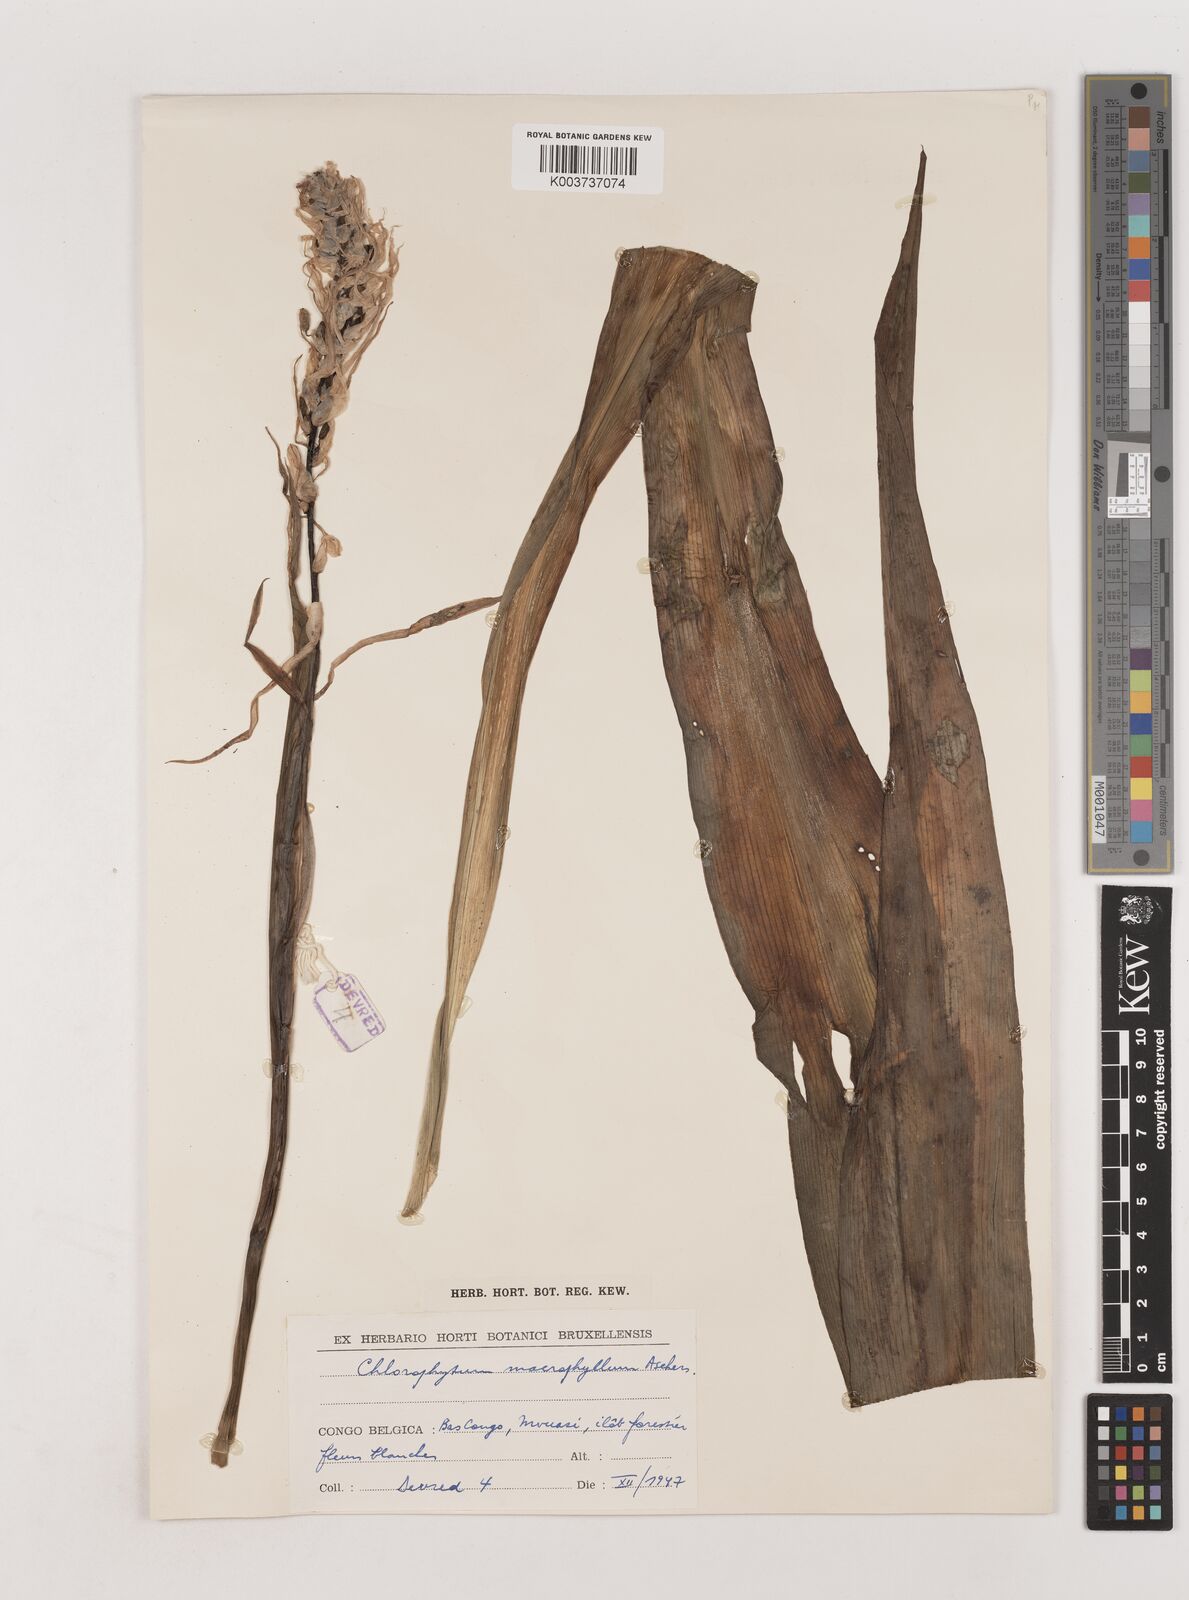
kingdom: Plantae
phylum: Tracheophyta
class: Liliopsida
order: Asparagales
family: Asparagaceae
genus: Chlorophytum
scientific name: Chlorophytum macrophyllum
